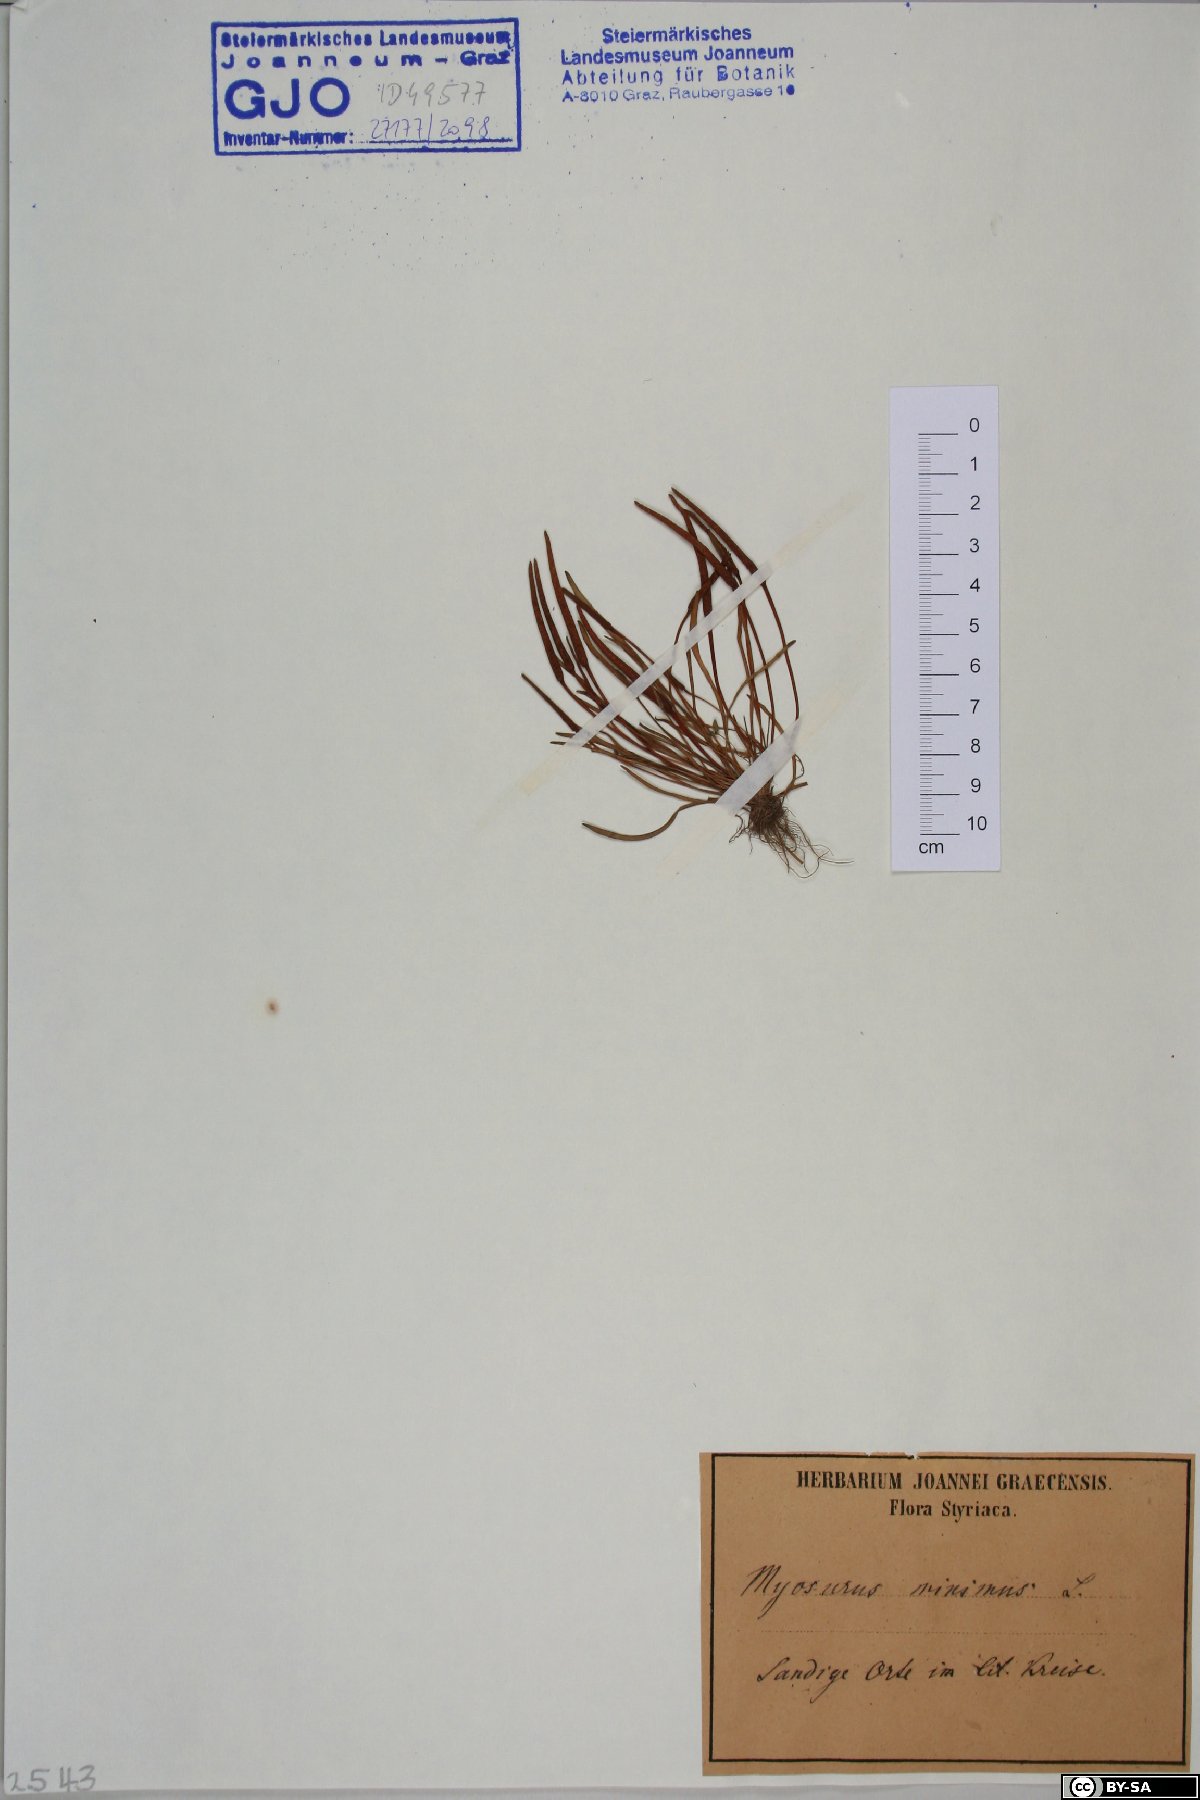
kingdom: Plantae
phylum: Tracheophyta
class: Magnoliopsida
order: Ranunculales
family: Ranunculaceae
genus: Myosurus
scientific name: Myosurus minimus
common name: Mousetail
